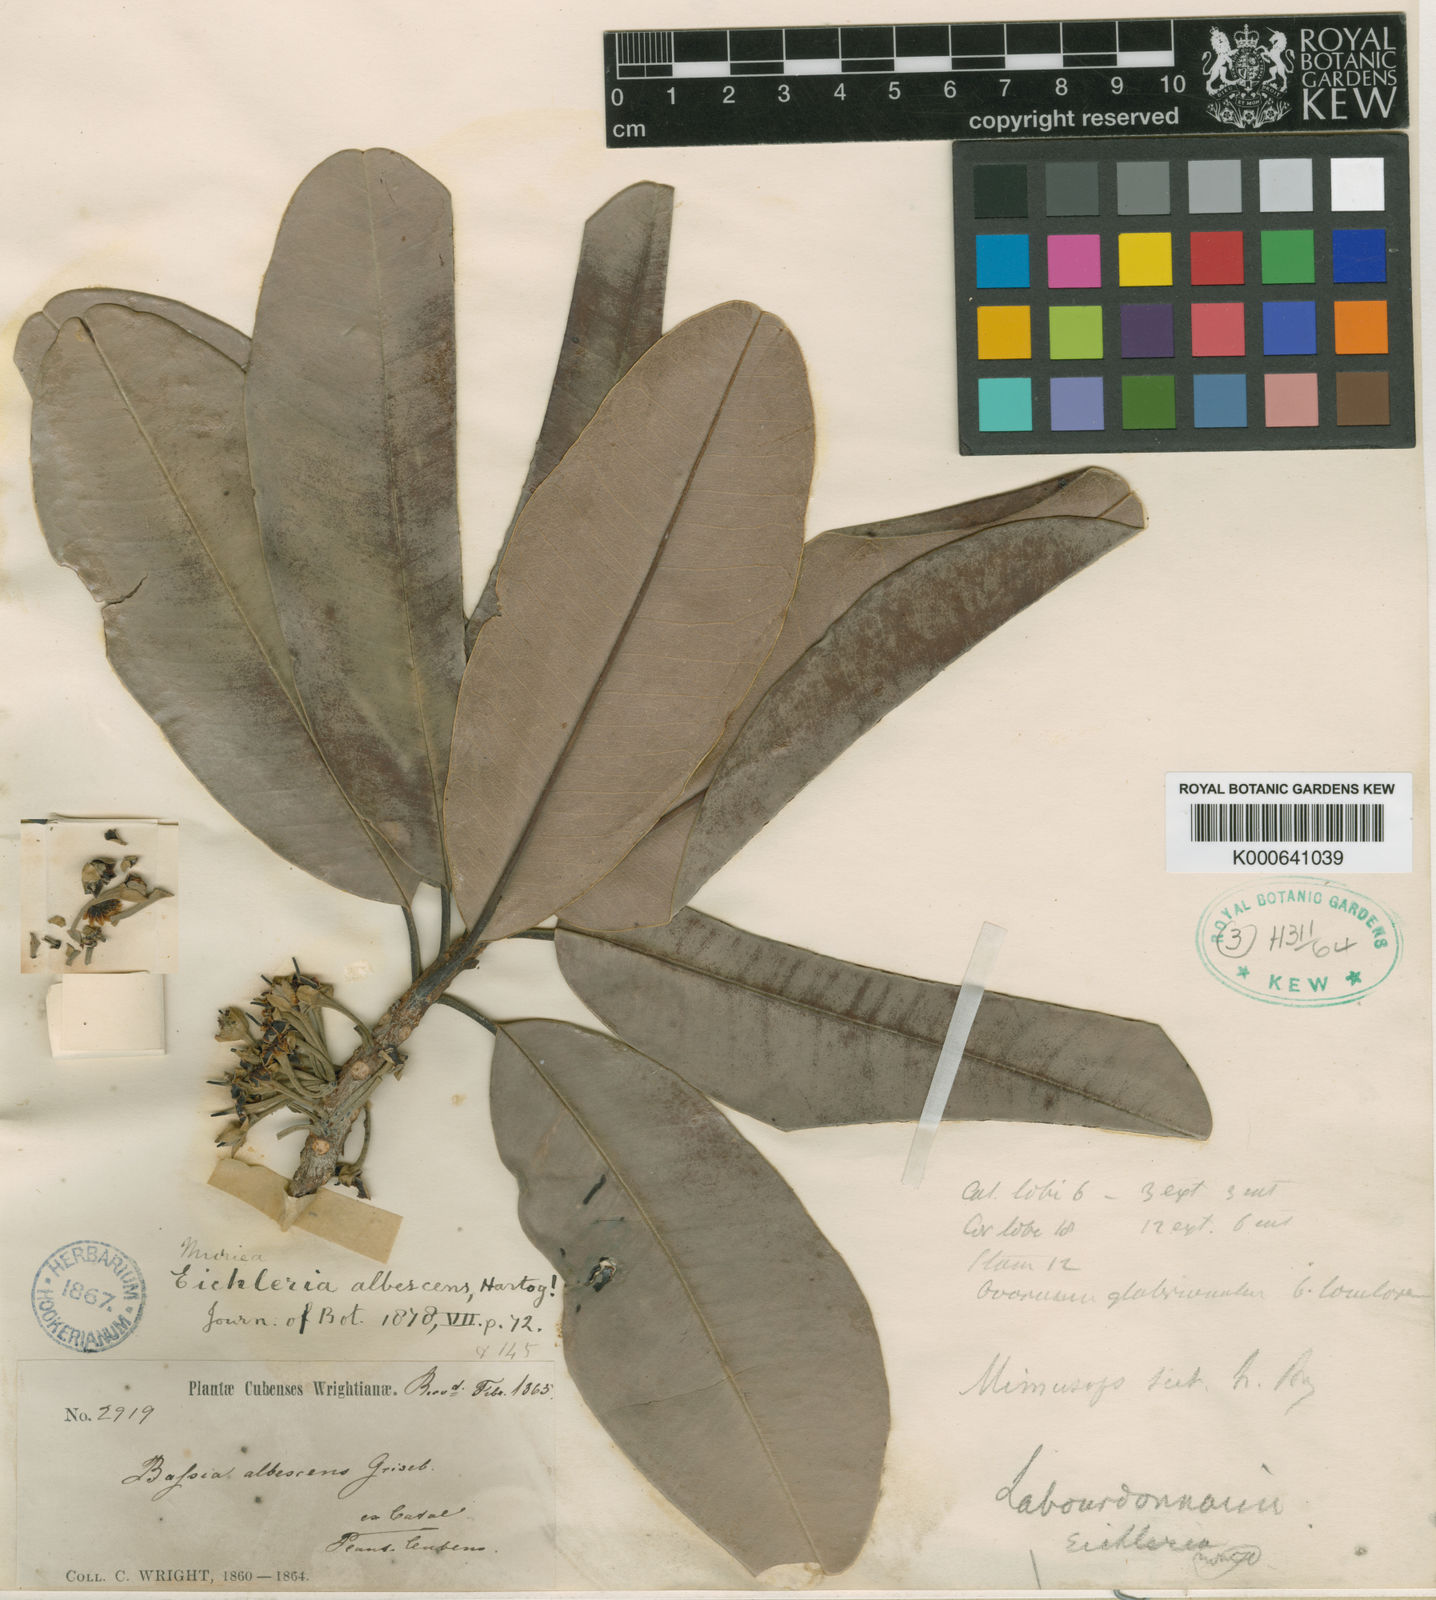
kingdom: Plantae
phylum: Tracheophyta
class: Magnoliopsida
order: Ericales
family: Sapotaceae
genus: Manilkara
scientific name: Manilkara valenzuelana
